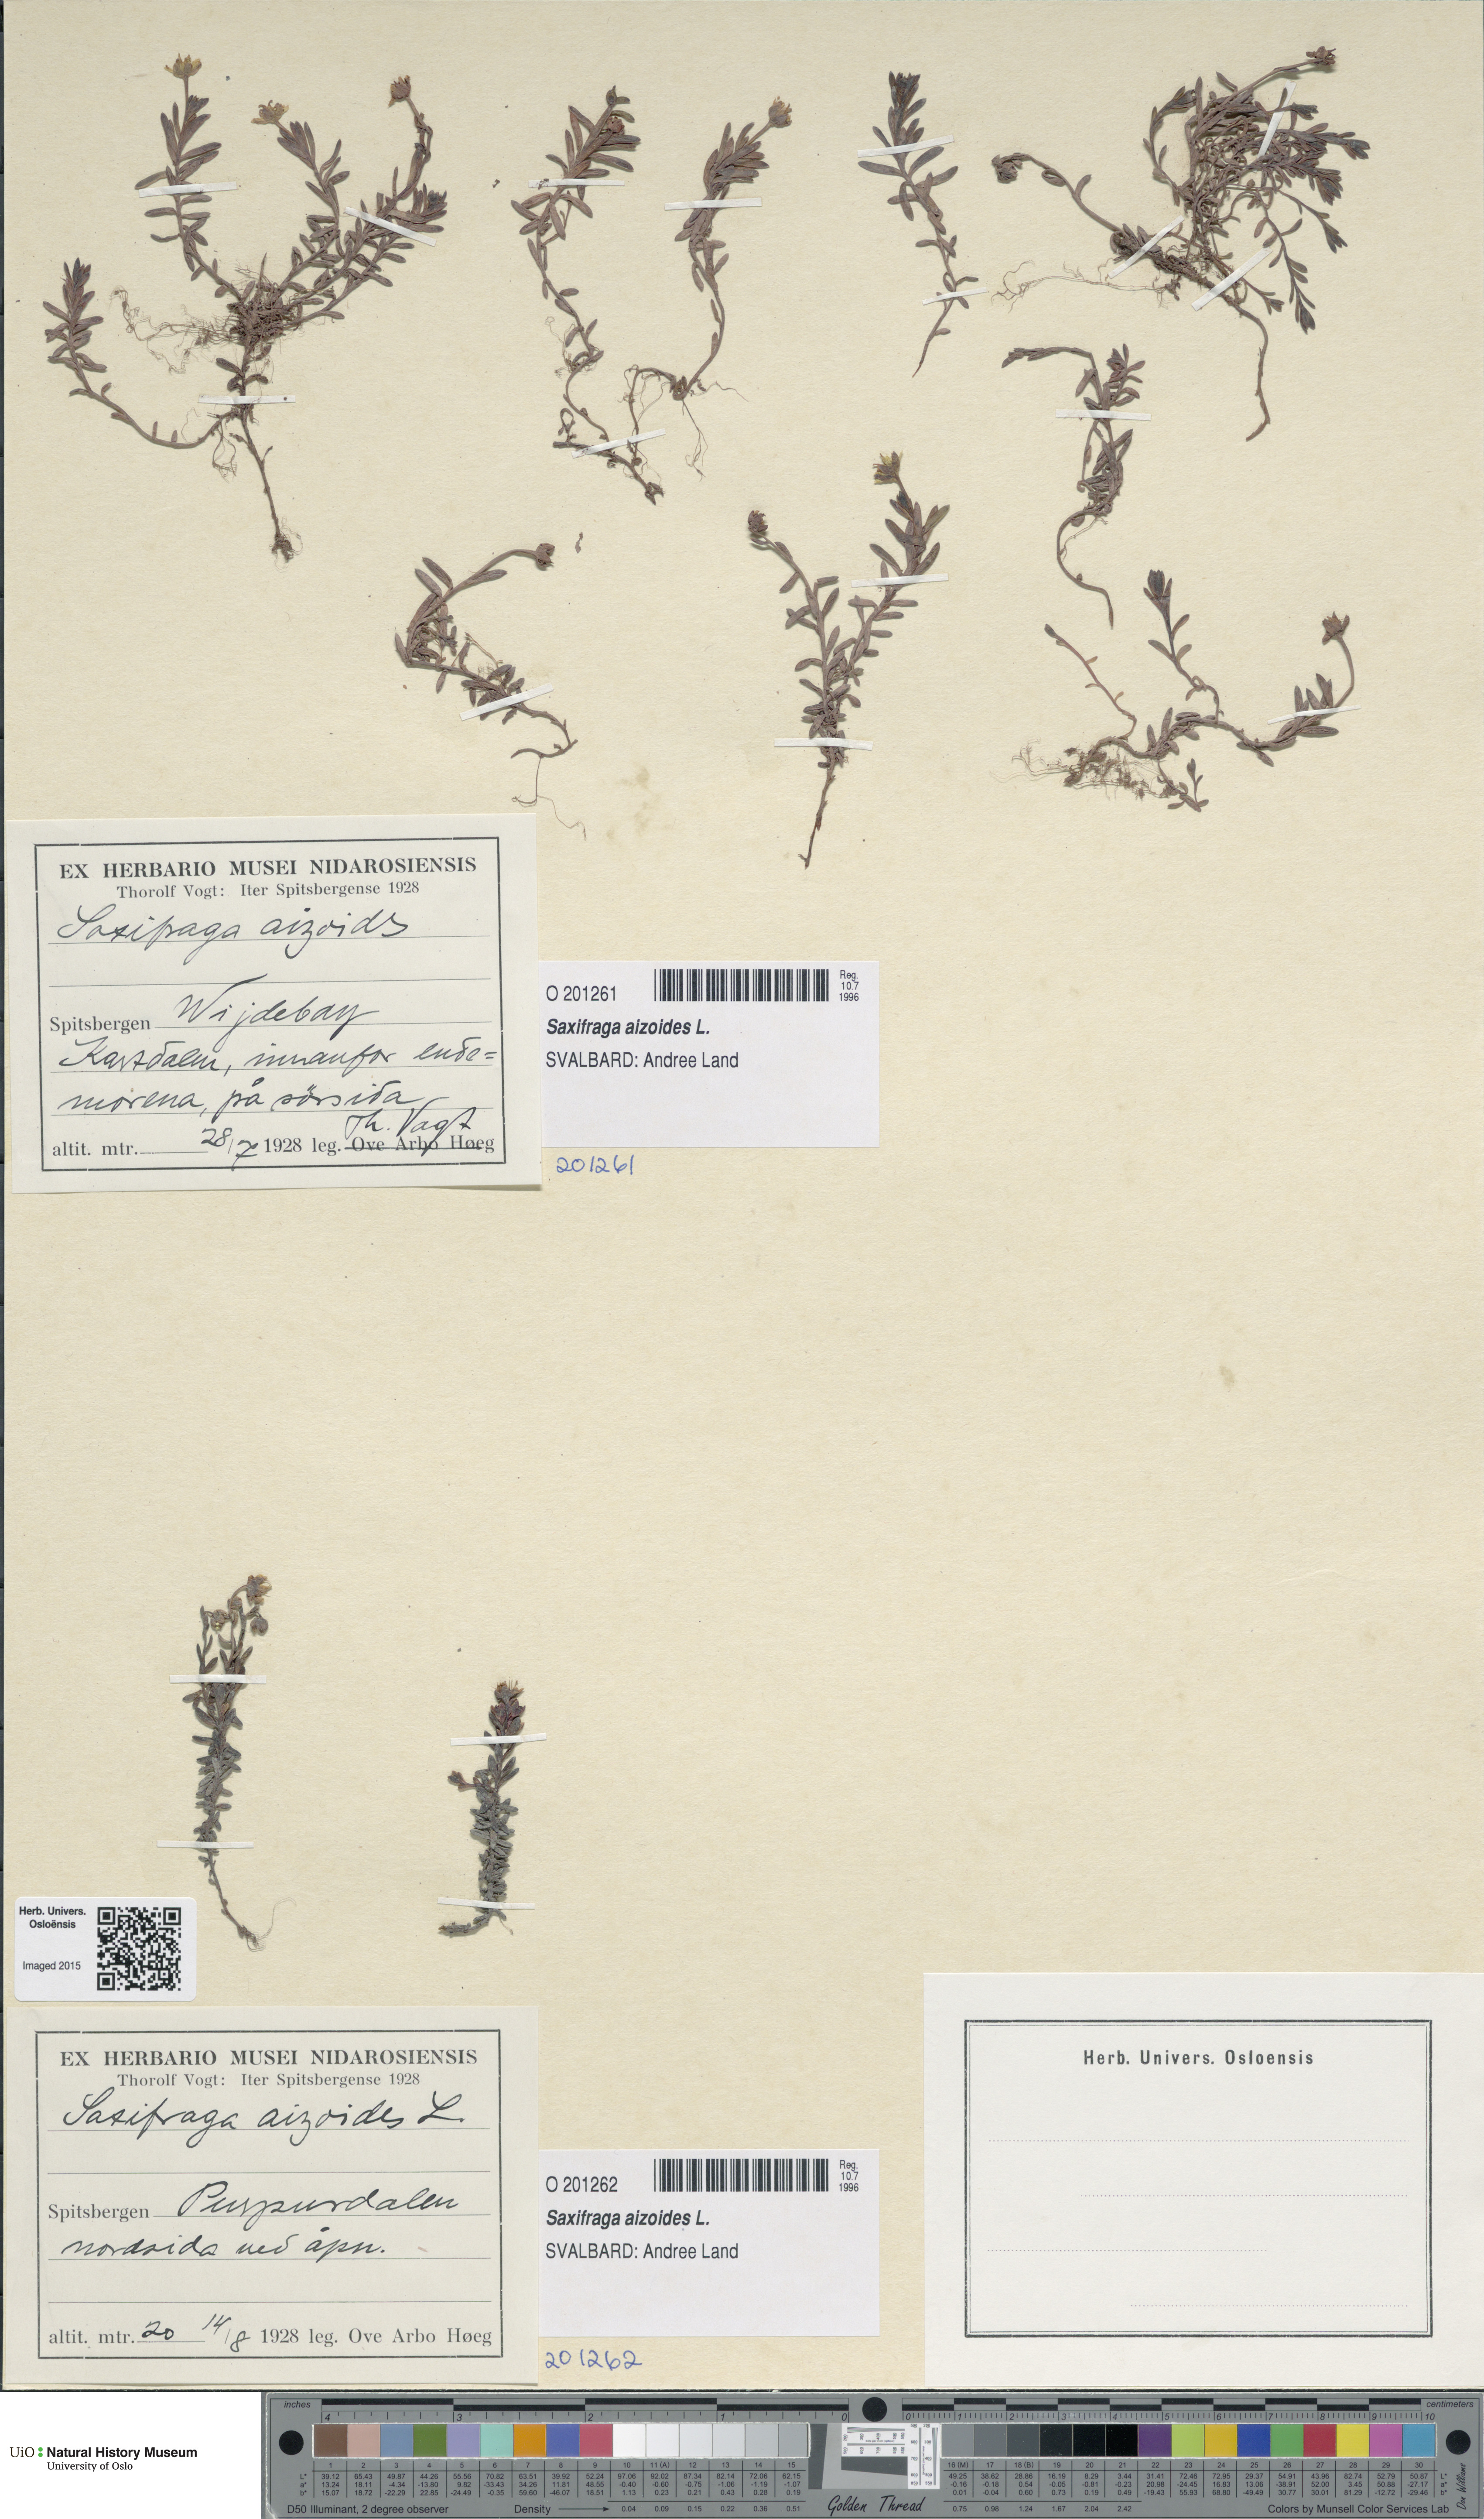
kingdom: Plantae
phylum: Tracheophyta
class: Magnoliopsida
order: Saxifragales
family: Saxifragaceae
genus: Saxifraga
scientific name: Saxifraga aizoides
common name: Yellow mountain saxifrage
